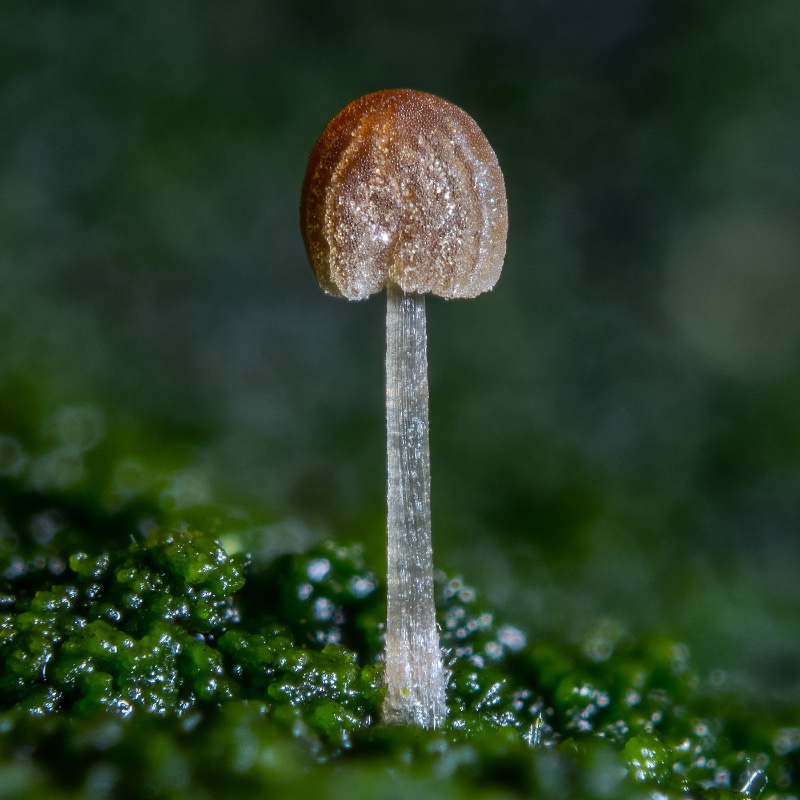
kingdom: Fungi
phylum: Basidiomycota
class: Agaricomycetes
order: Agaricales
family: Psathyrellaceae
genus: Parasola
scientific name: Parasola misera
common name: lillebitte hjulhat
